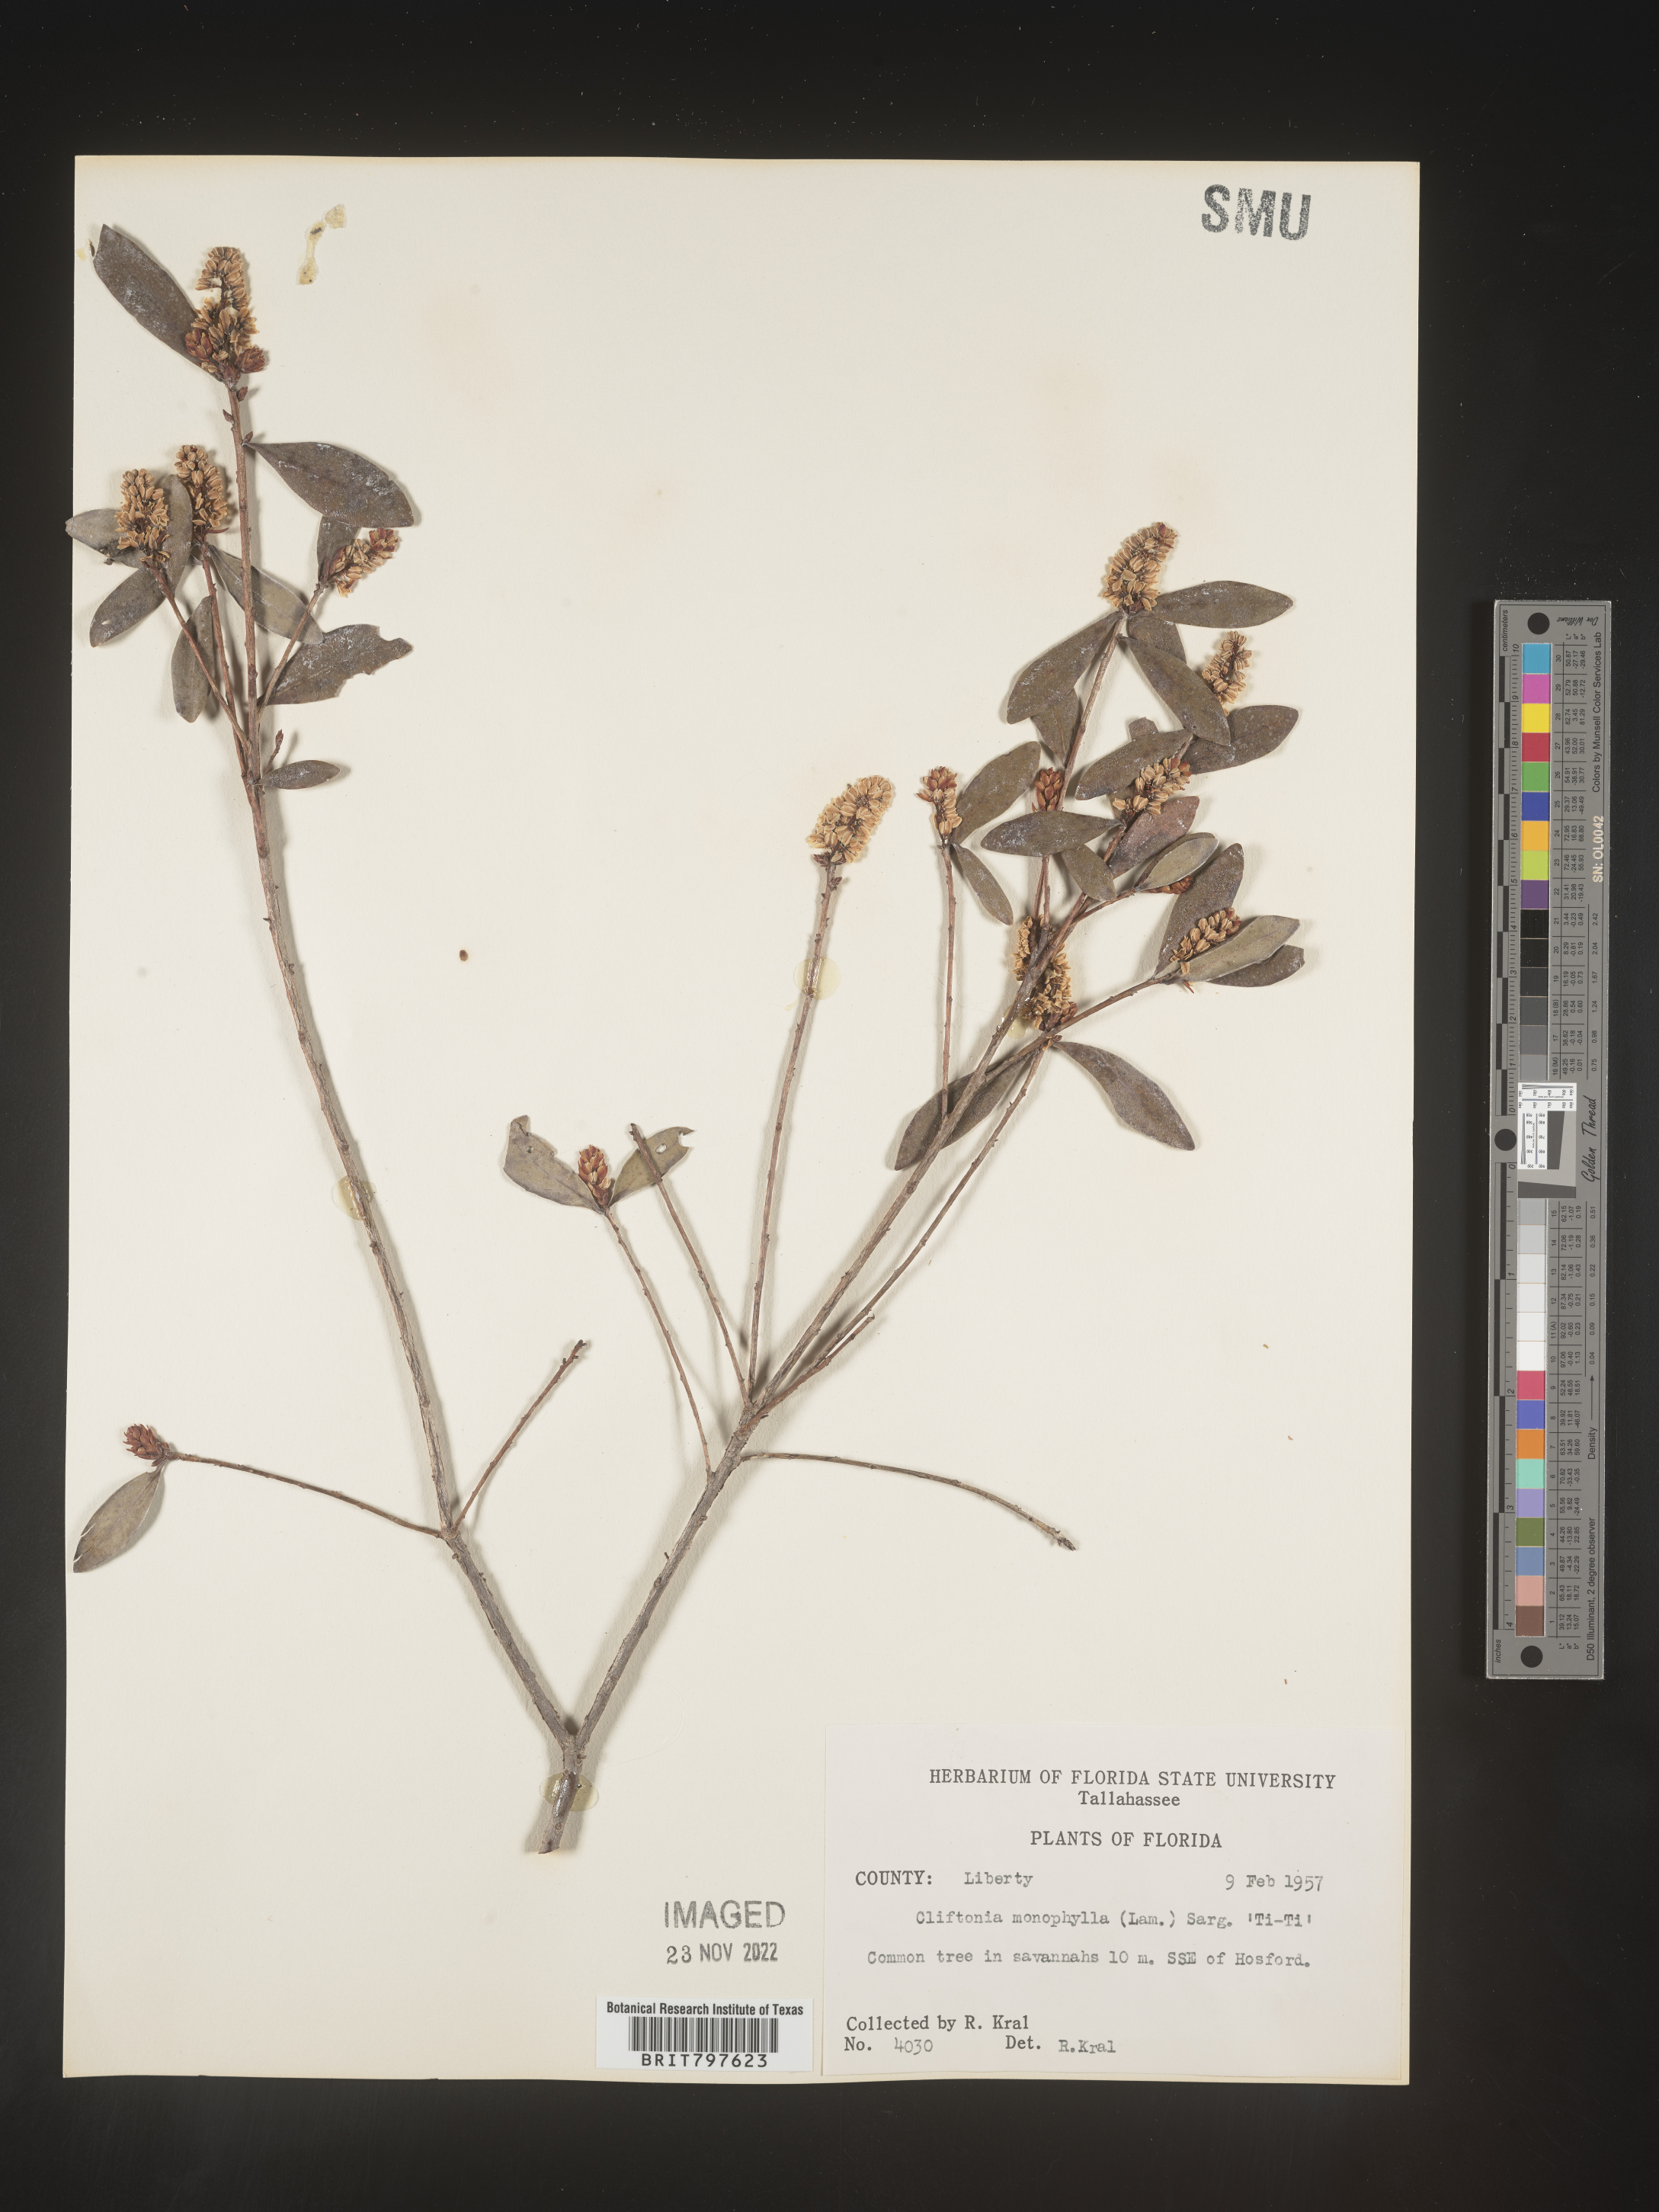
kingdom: Plantae
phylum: Tracheophyta
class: Magnoliopsida
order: Ericales
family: Cyrillaceae
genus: Cliftonia
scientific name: Cliftonia monophylla
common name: Titi
